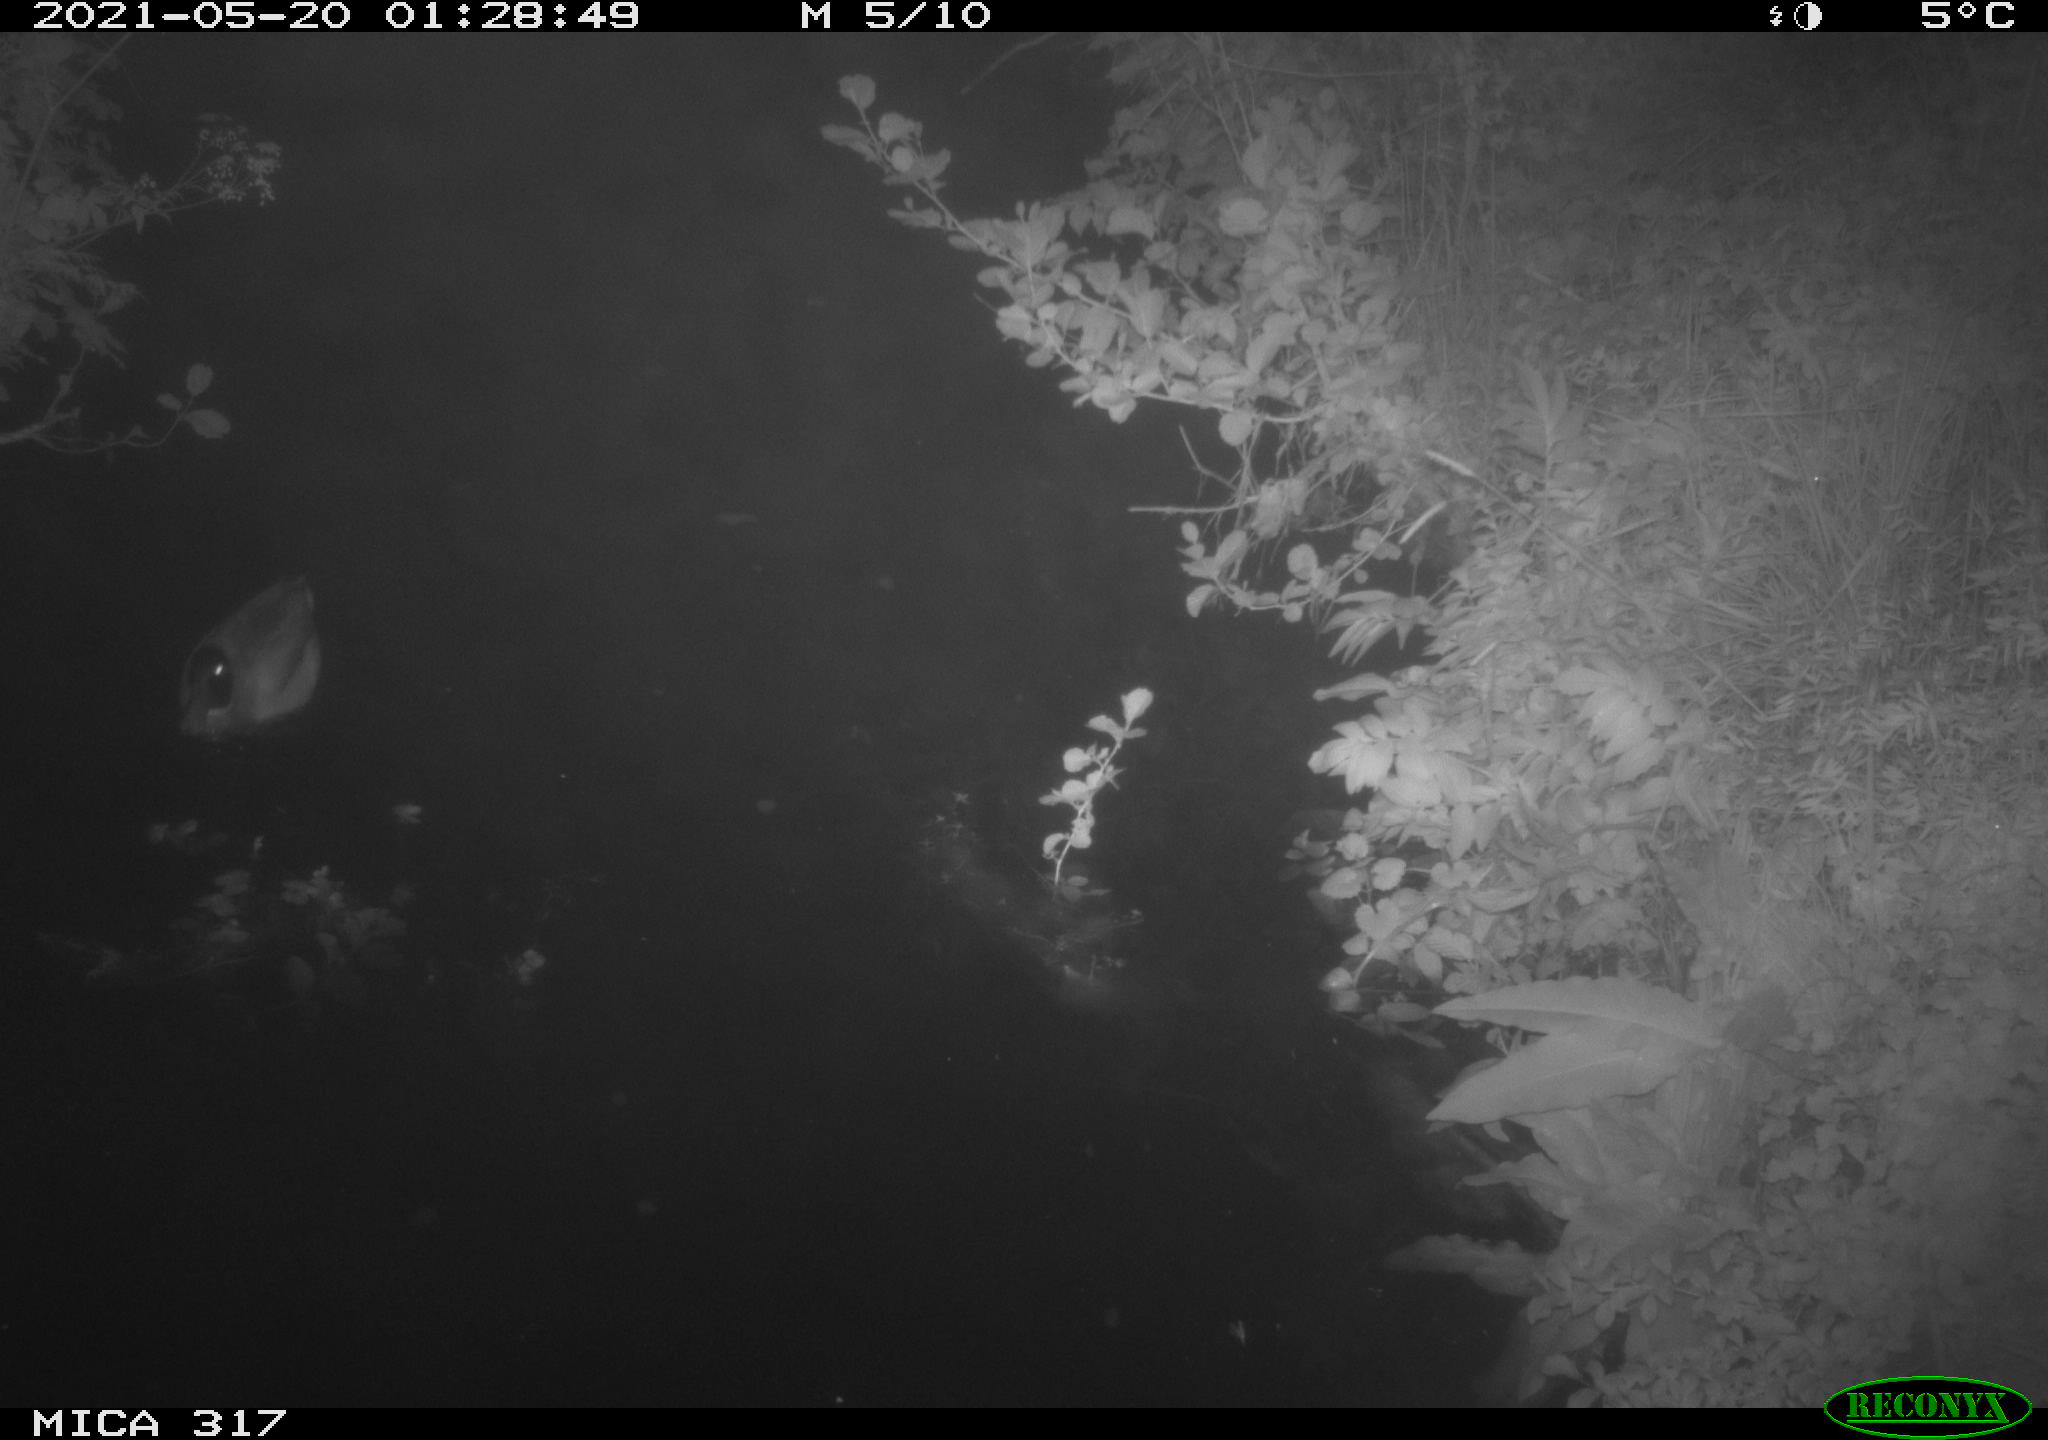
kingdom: Animalia
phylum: Chordata
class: Aves
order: Anseriformes
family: Anatidae
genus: Anas
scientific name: Anas
